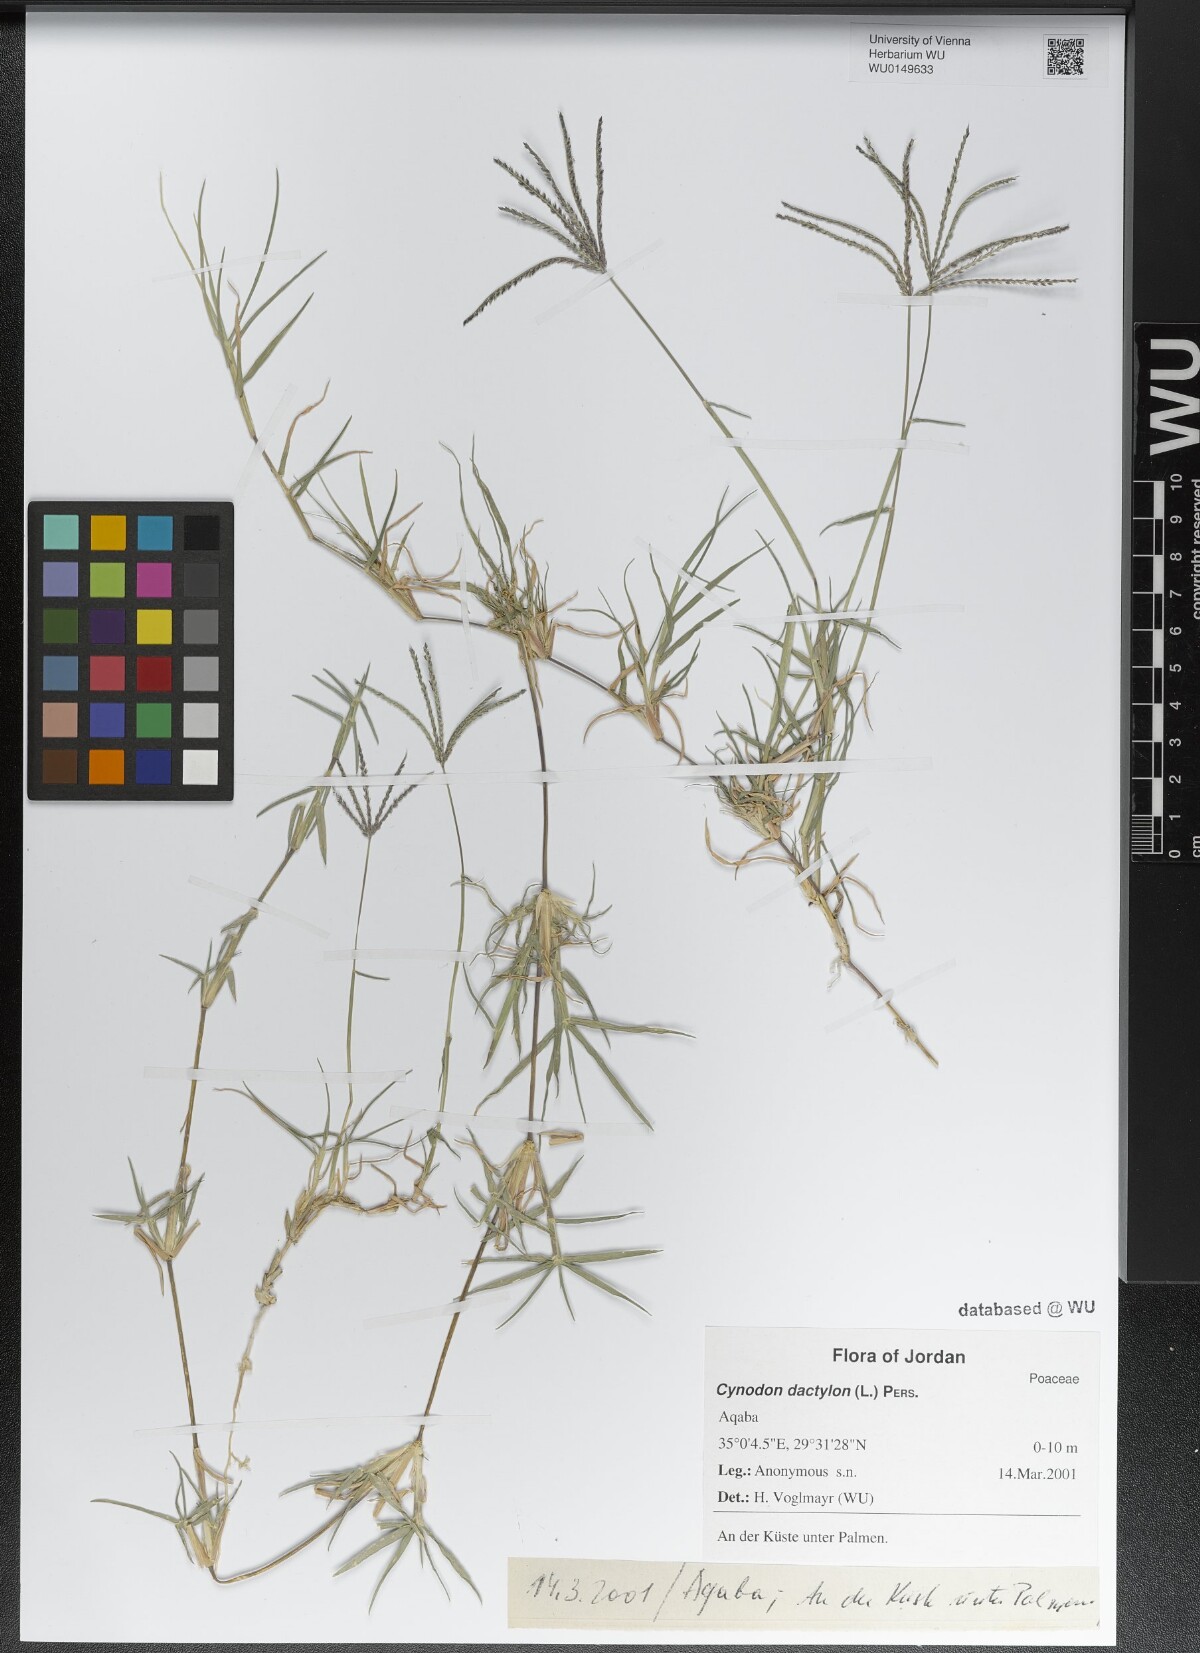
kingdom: Plantae
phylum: Tracheophyta
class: Liliopsida
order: Poales
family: Poaceae
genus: Cynodon
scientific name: Cynodon dactylon
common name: Bermuda grass
